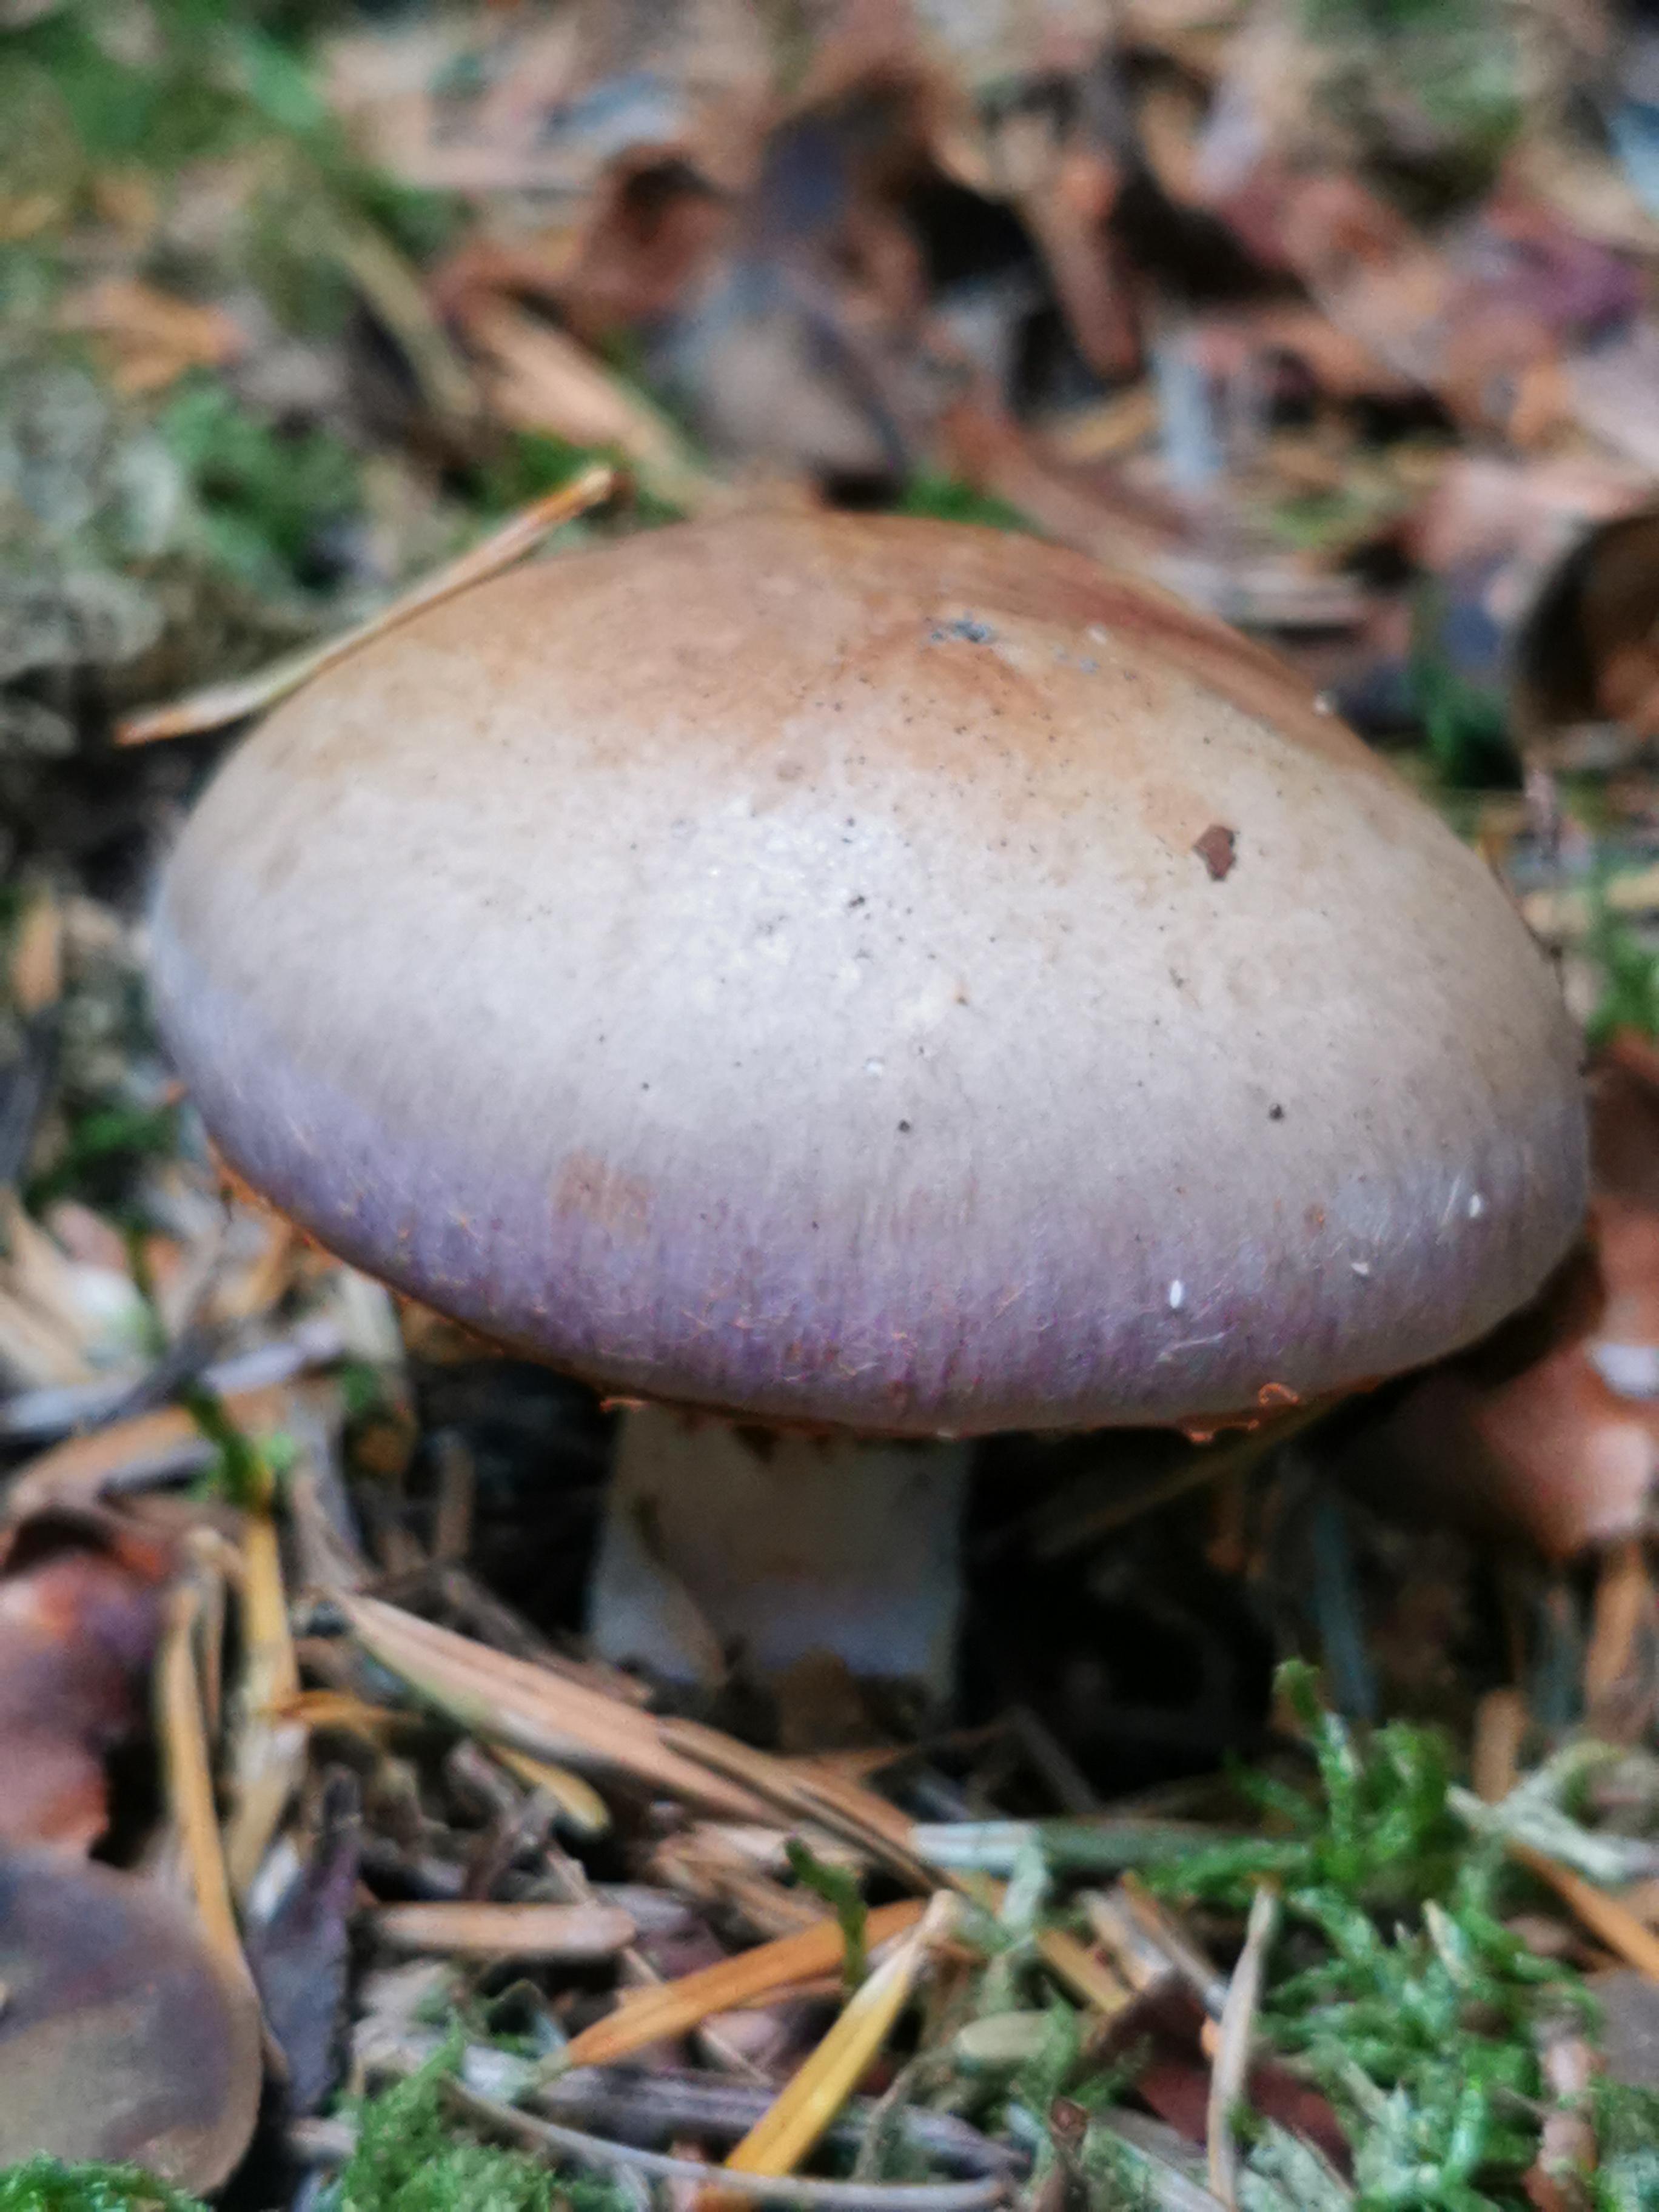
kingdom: Fungi
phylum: Basidiomycota
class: Agaricomycetes
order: Agaricales
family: Cortinariaceae
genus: Cortinarius
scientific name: Cortinarius variecolor
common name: violetagtig slørhat
